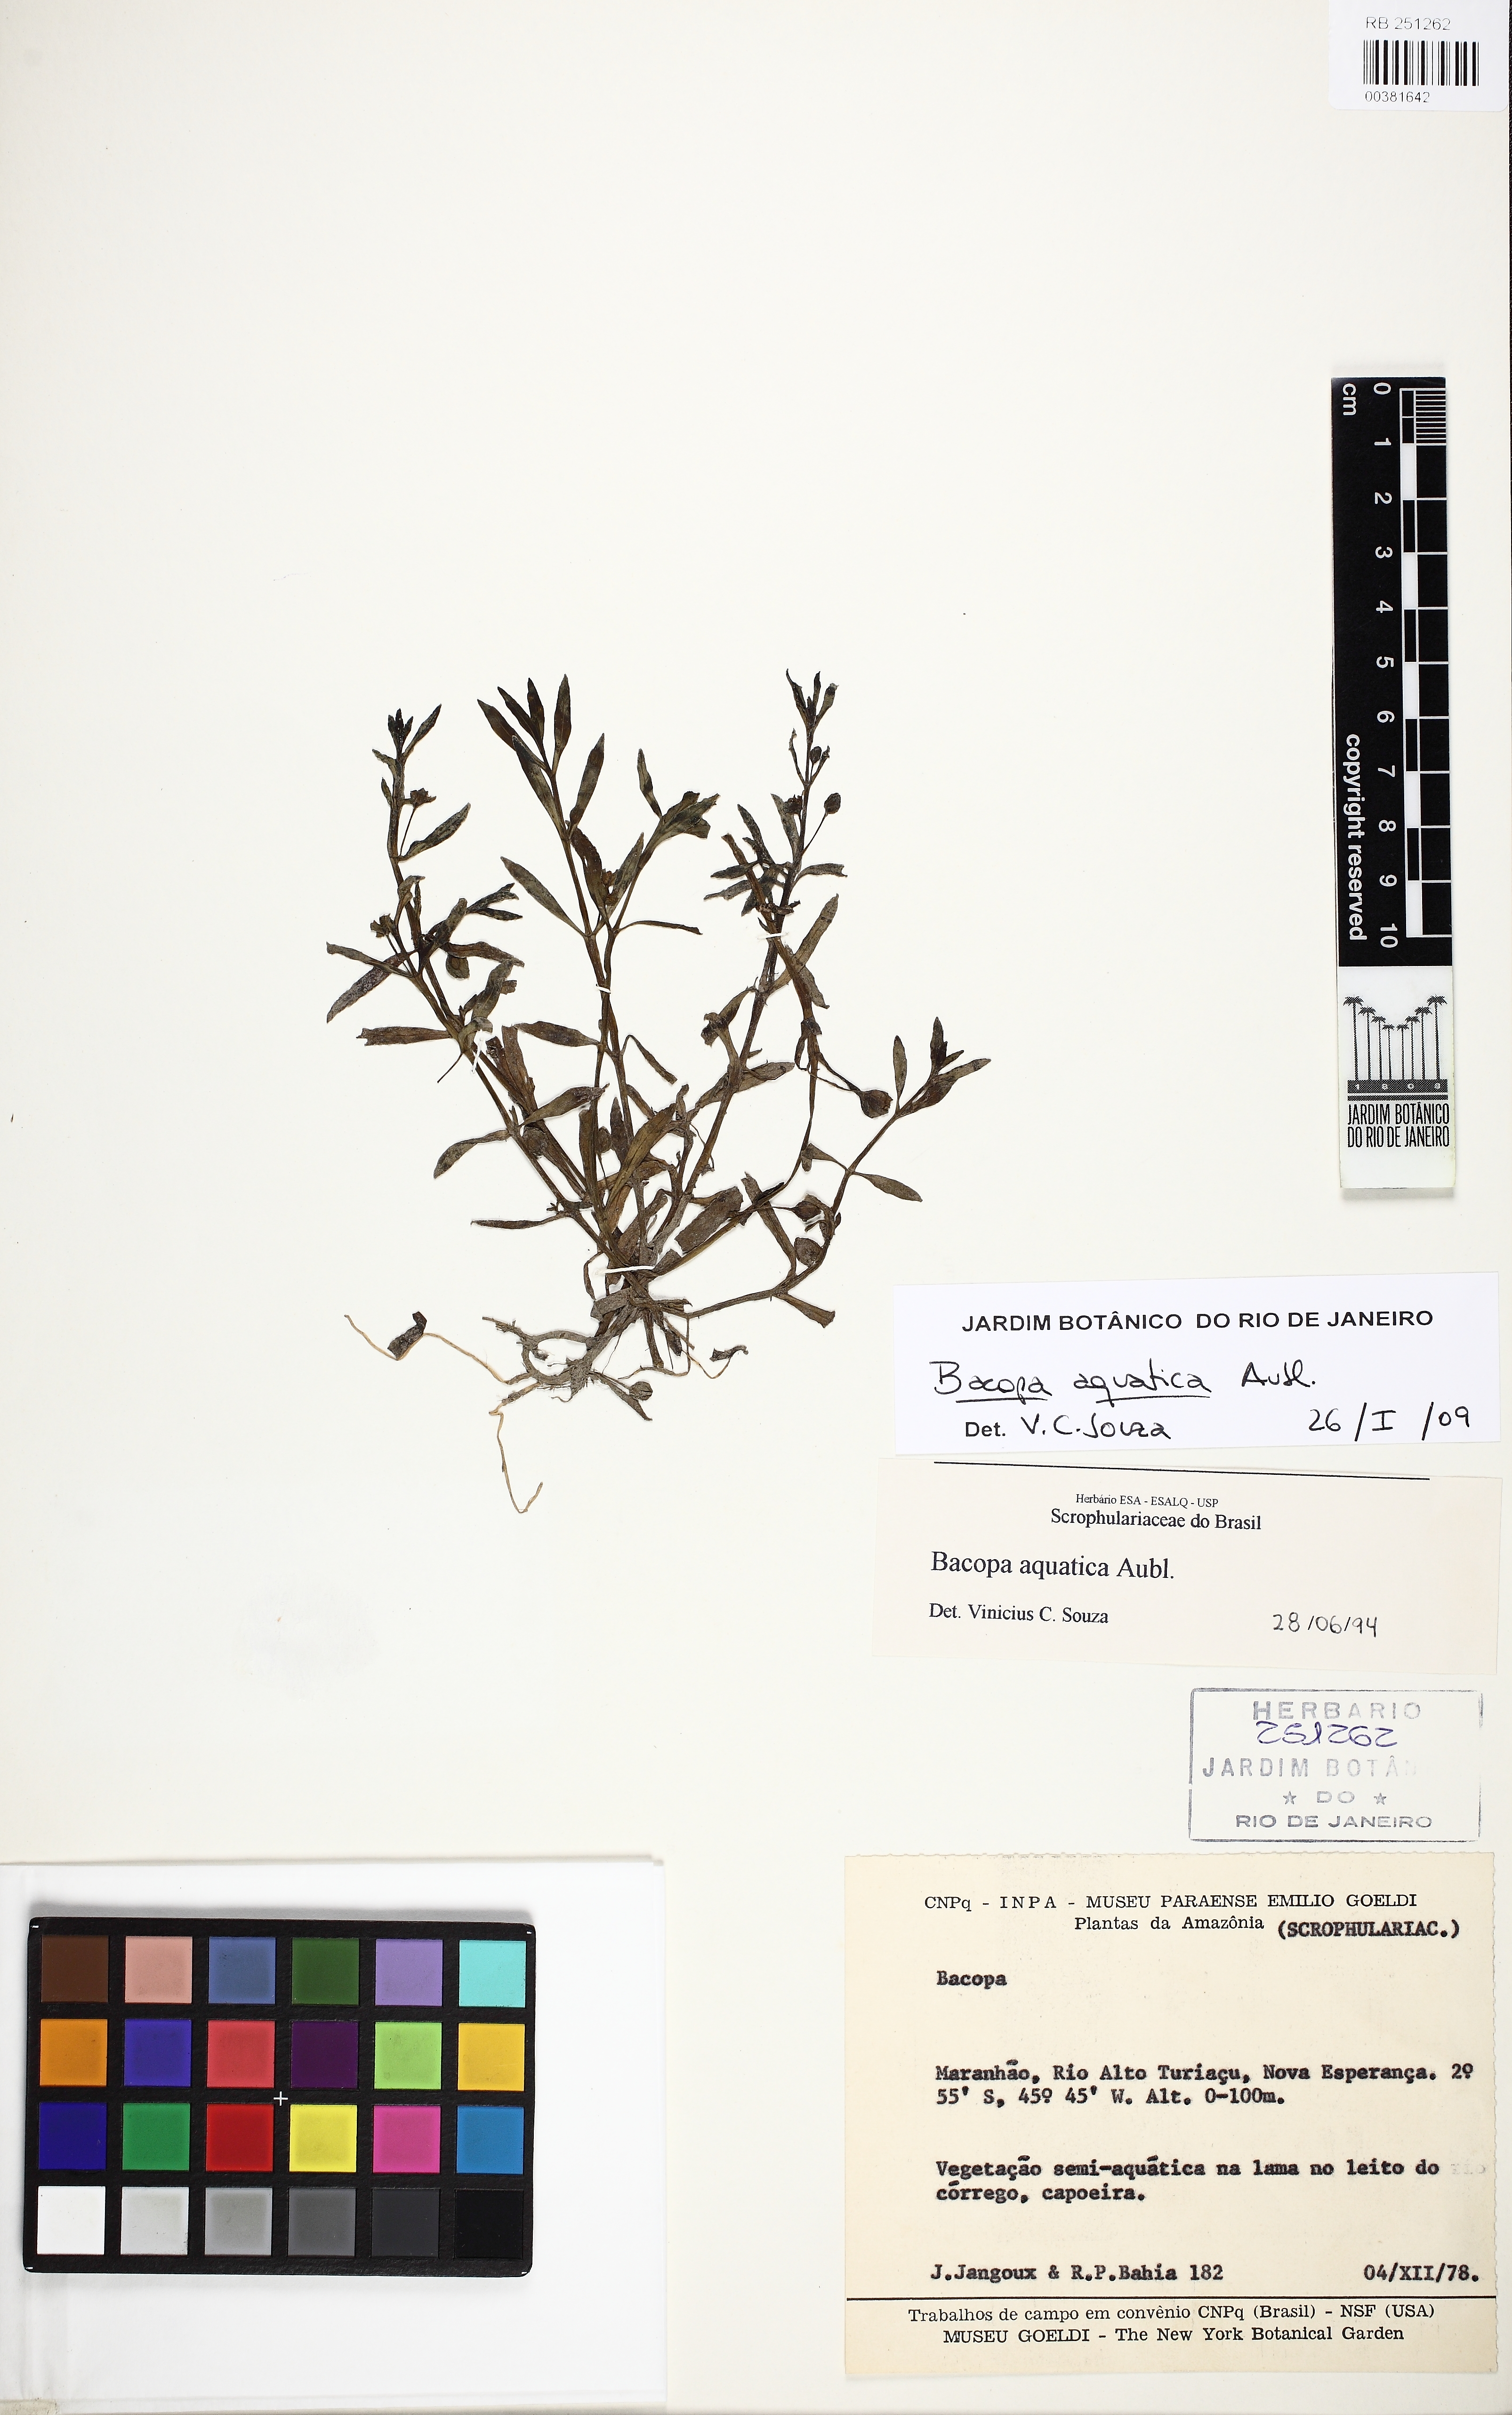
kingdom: Plantae
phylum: Tracheophyta
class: Magnoliopsida
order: Lamiales
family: Plantaginaceae
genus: Bacopa
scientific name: Bacopa aquatica
